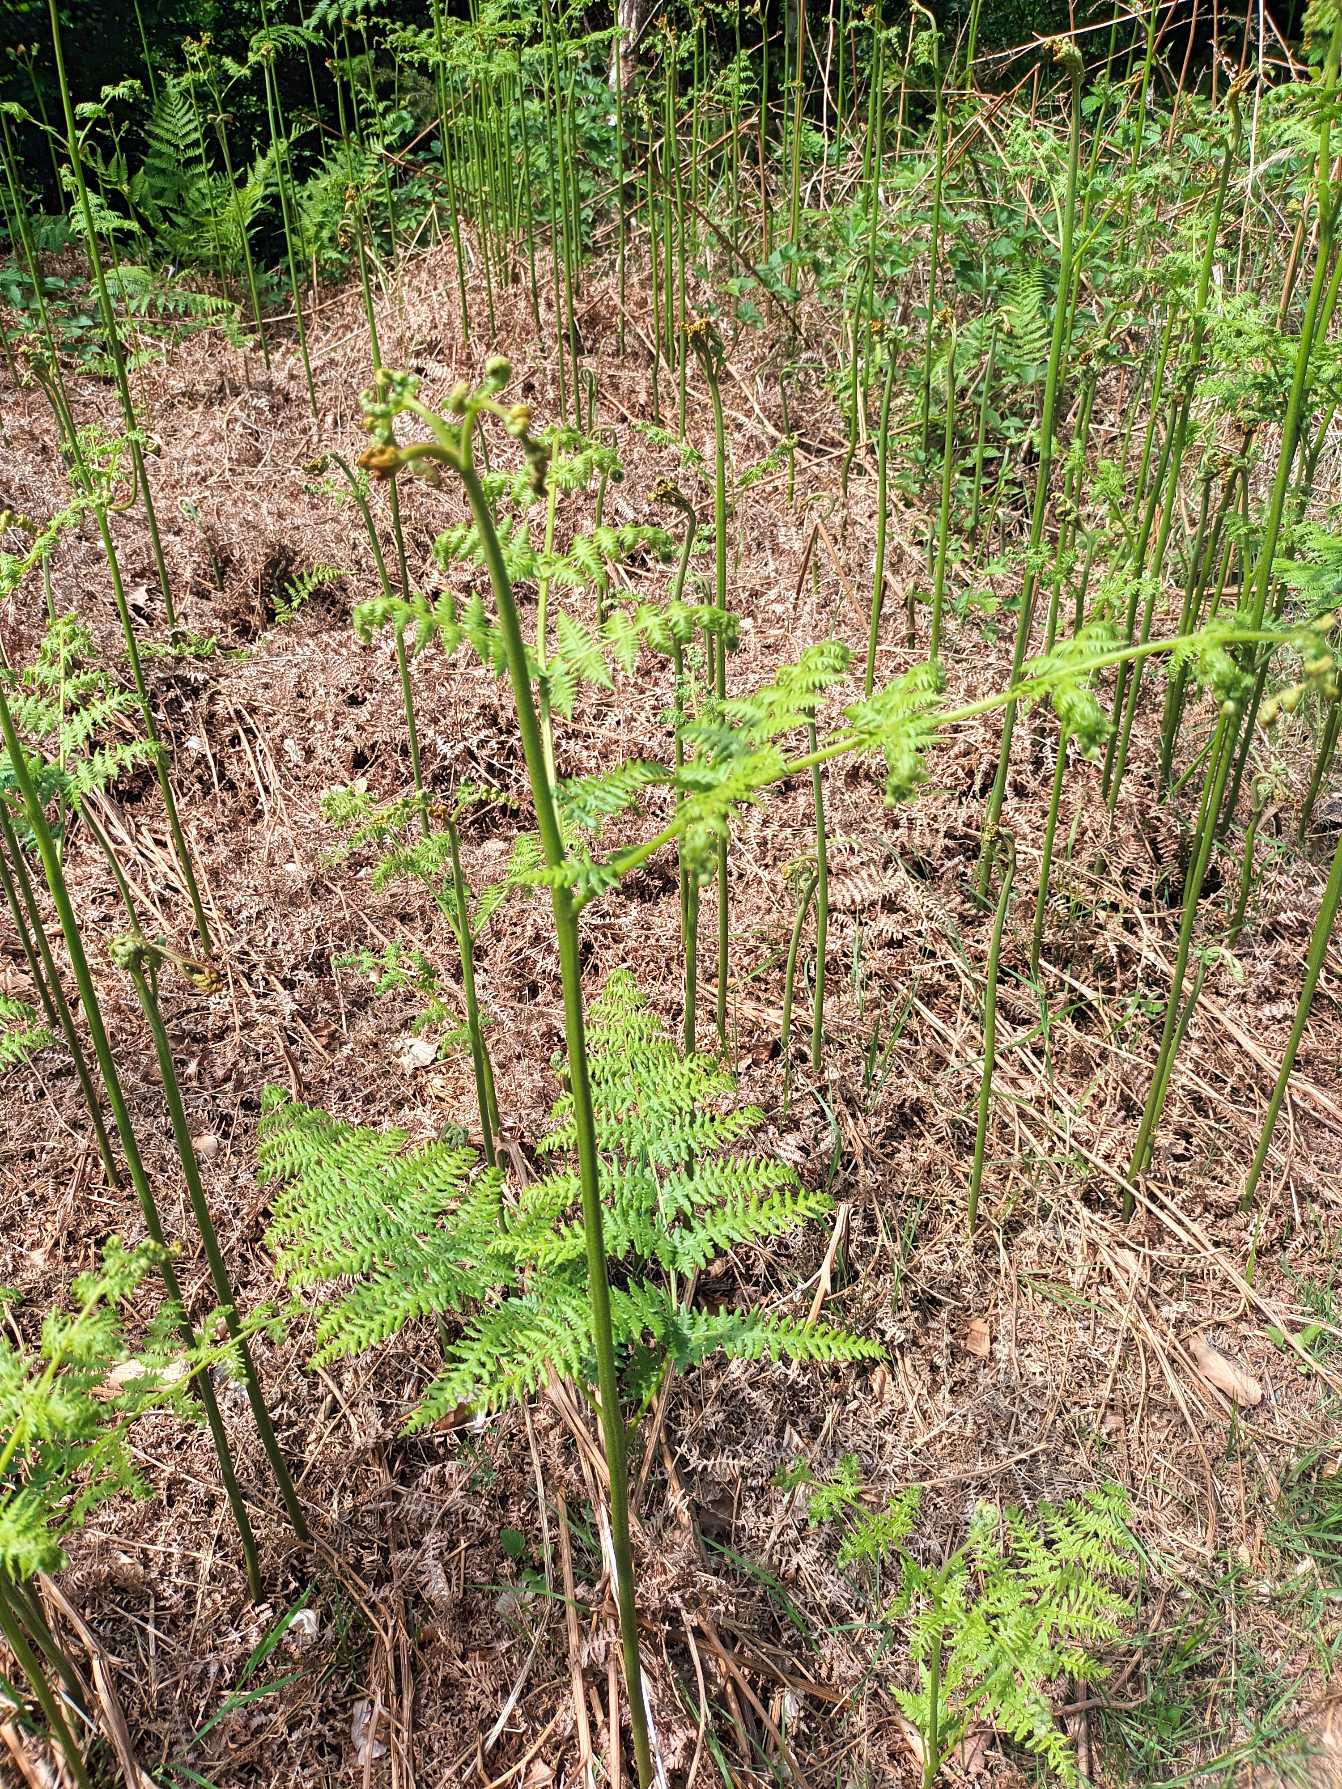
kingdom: Plantae
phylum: Tracheophyta
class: Polypodiopsida
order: Polypodiales
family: Dennstaedtiaceae
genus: Pteridium
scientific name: Pteridium aquilinum
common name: Ørnebregne
